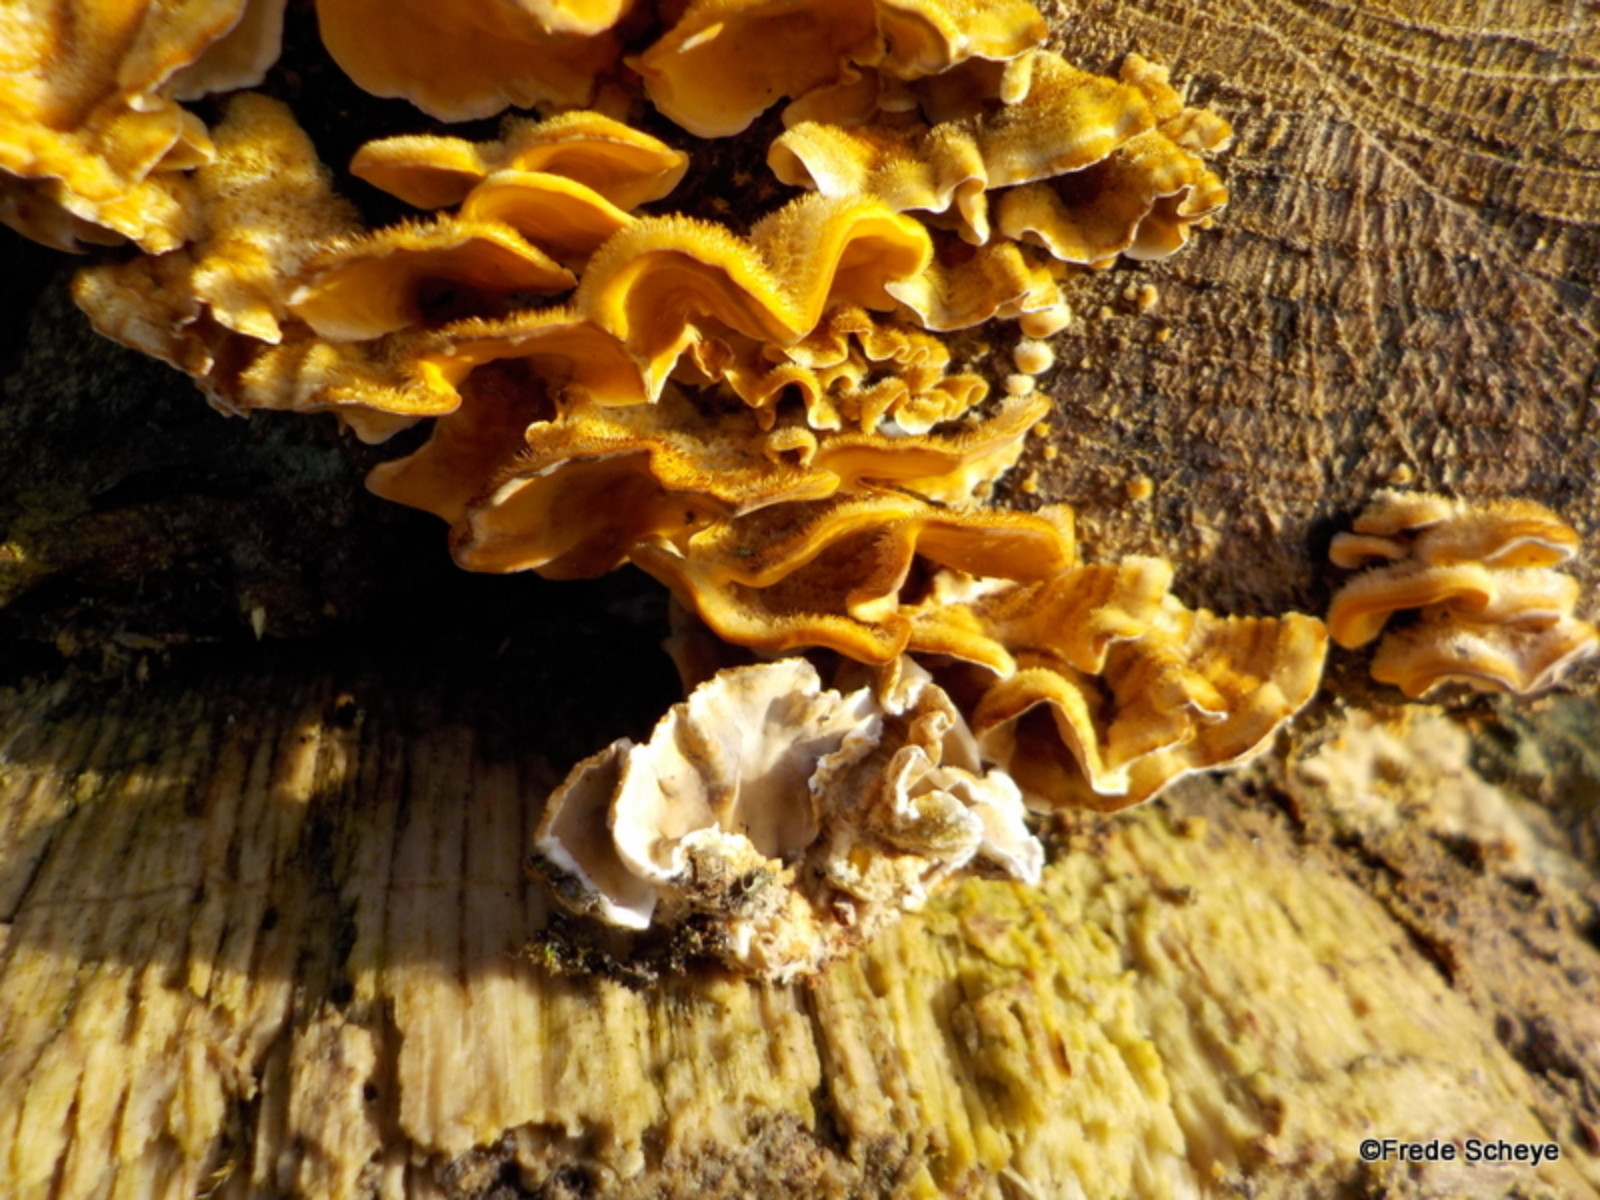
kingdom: Fungi
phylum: Basidiomycota
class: Agaricomycetes
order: Russulales
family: Stereaceae
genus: Stereum
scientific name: Stereum hirsutum
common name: håret lædersvamp
